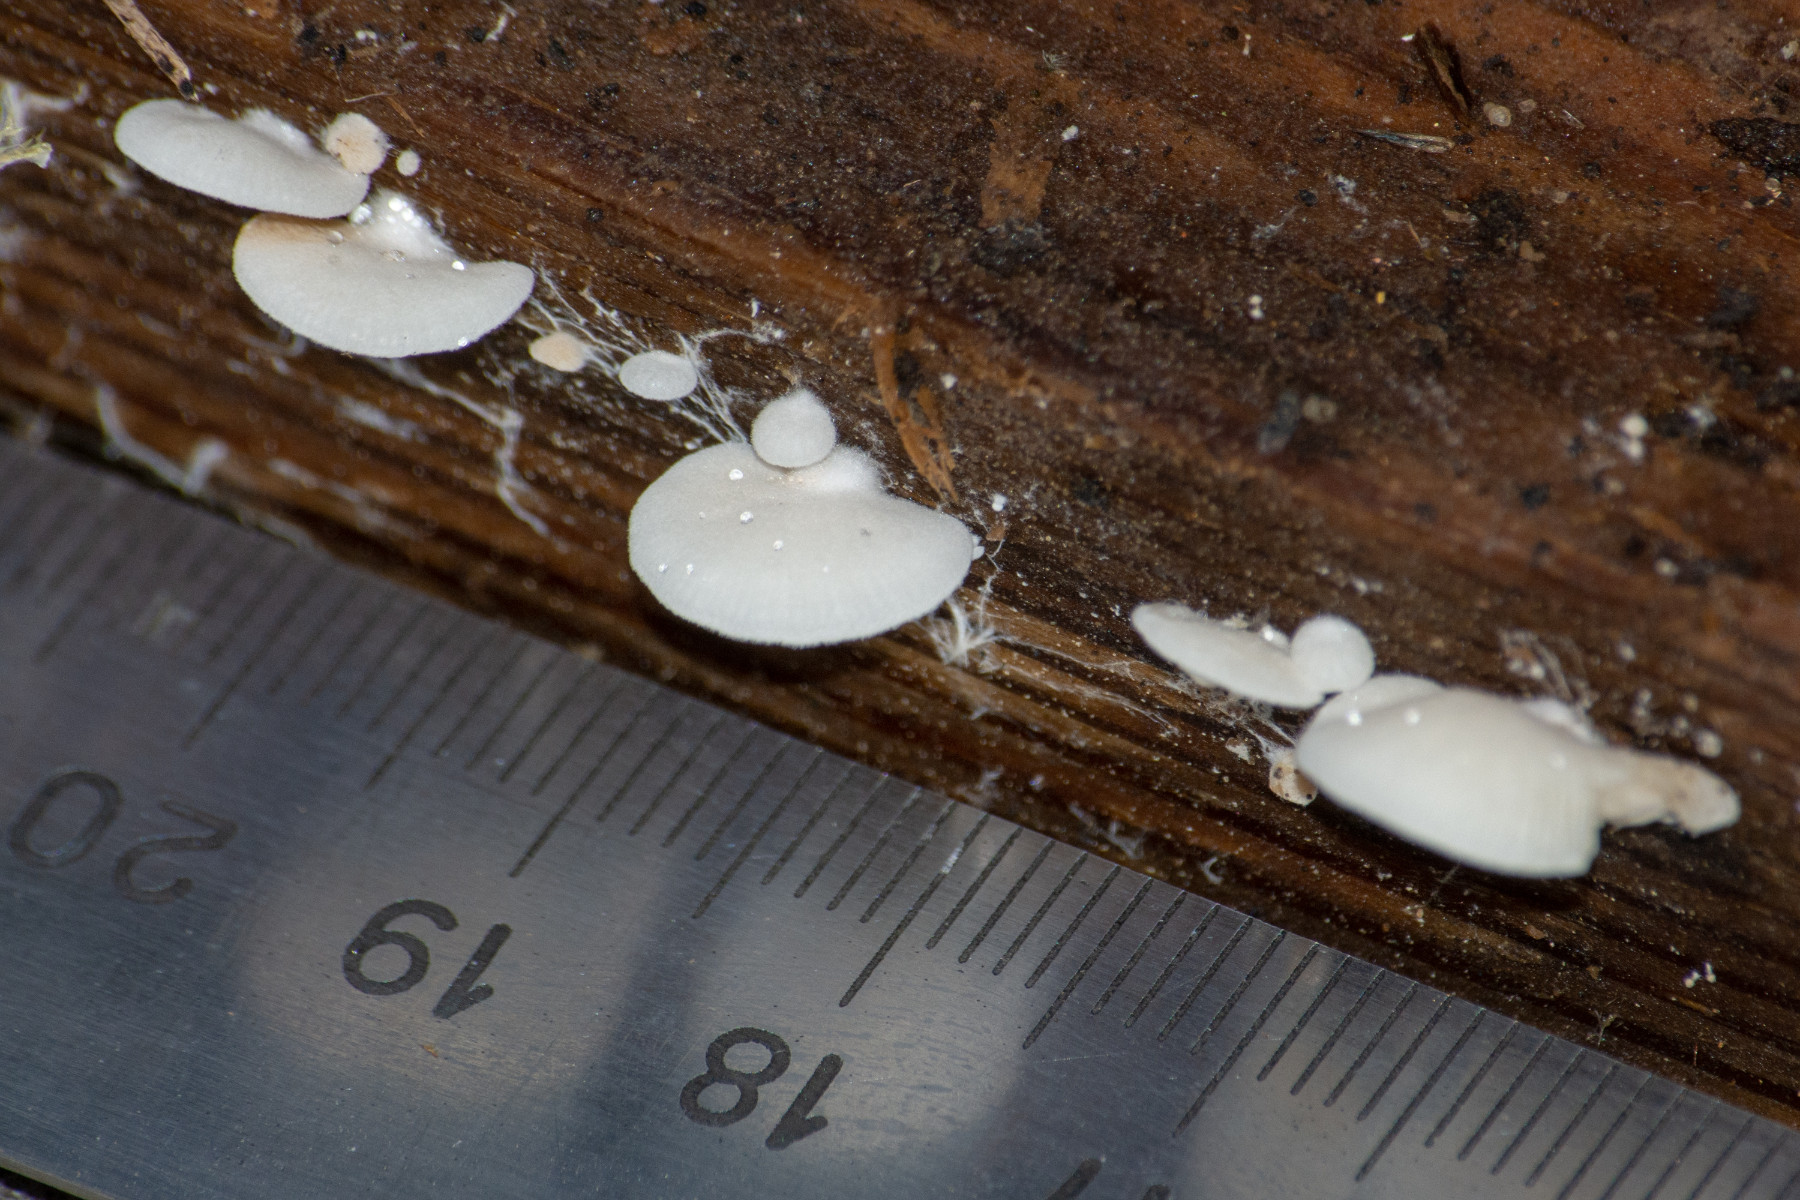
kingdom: Fungi
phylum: Basidiomycota
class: Agaricomycetes
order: Agaricales
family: Crepidotaceae
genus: Crepidotus
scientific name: Crepidotus
